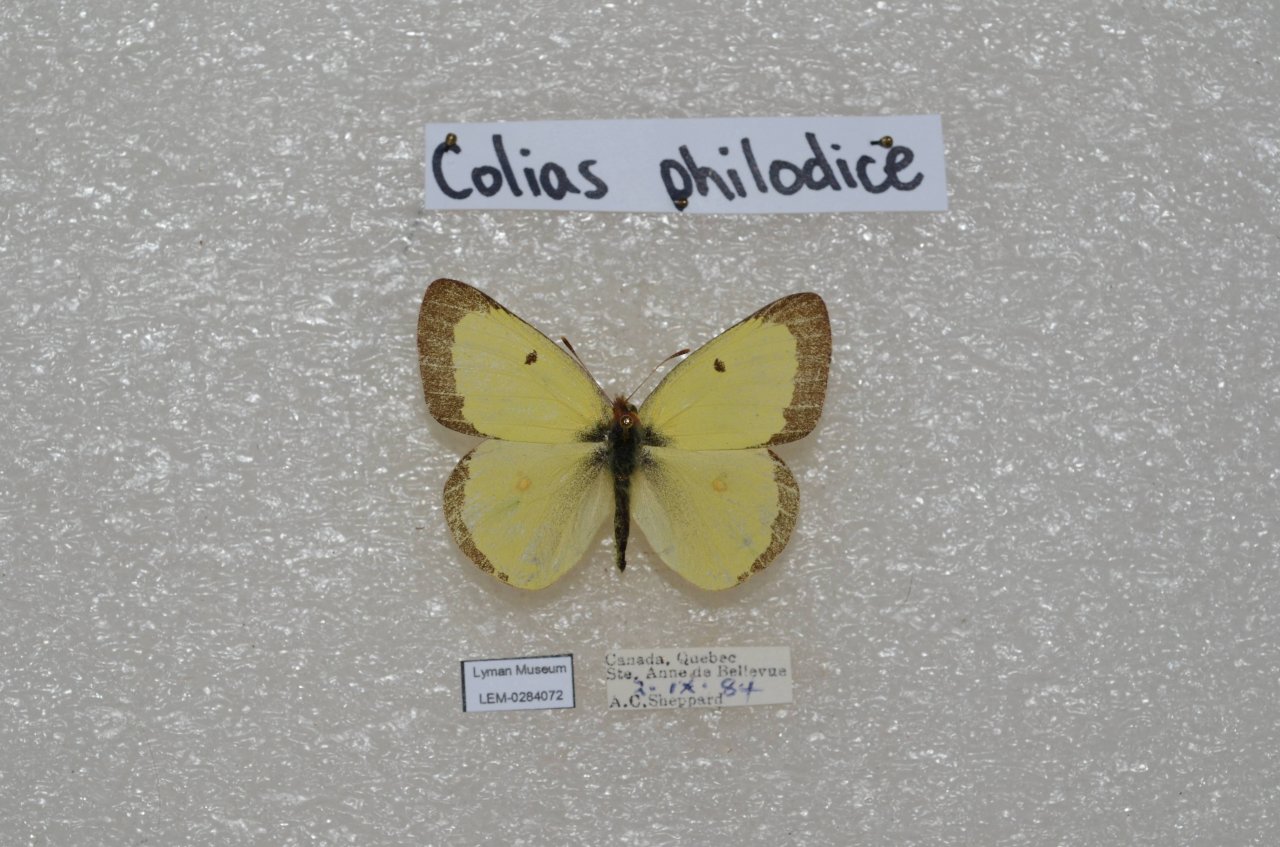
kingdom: Animalia
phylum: Arthropoda
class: Insecta
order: Lepidoptera
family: Pieridae
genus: Colias
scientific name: Colias philodice
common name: Clouded Sulphur
